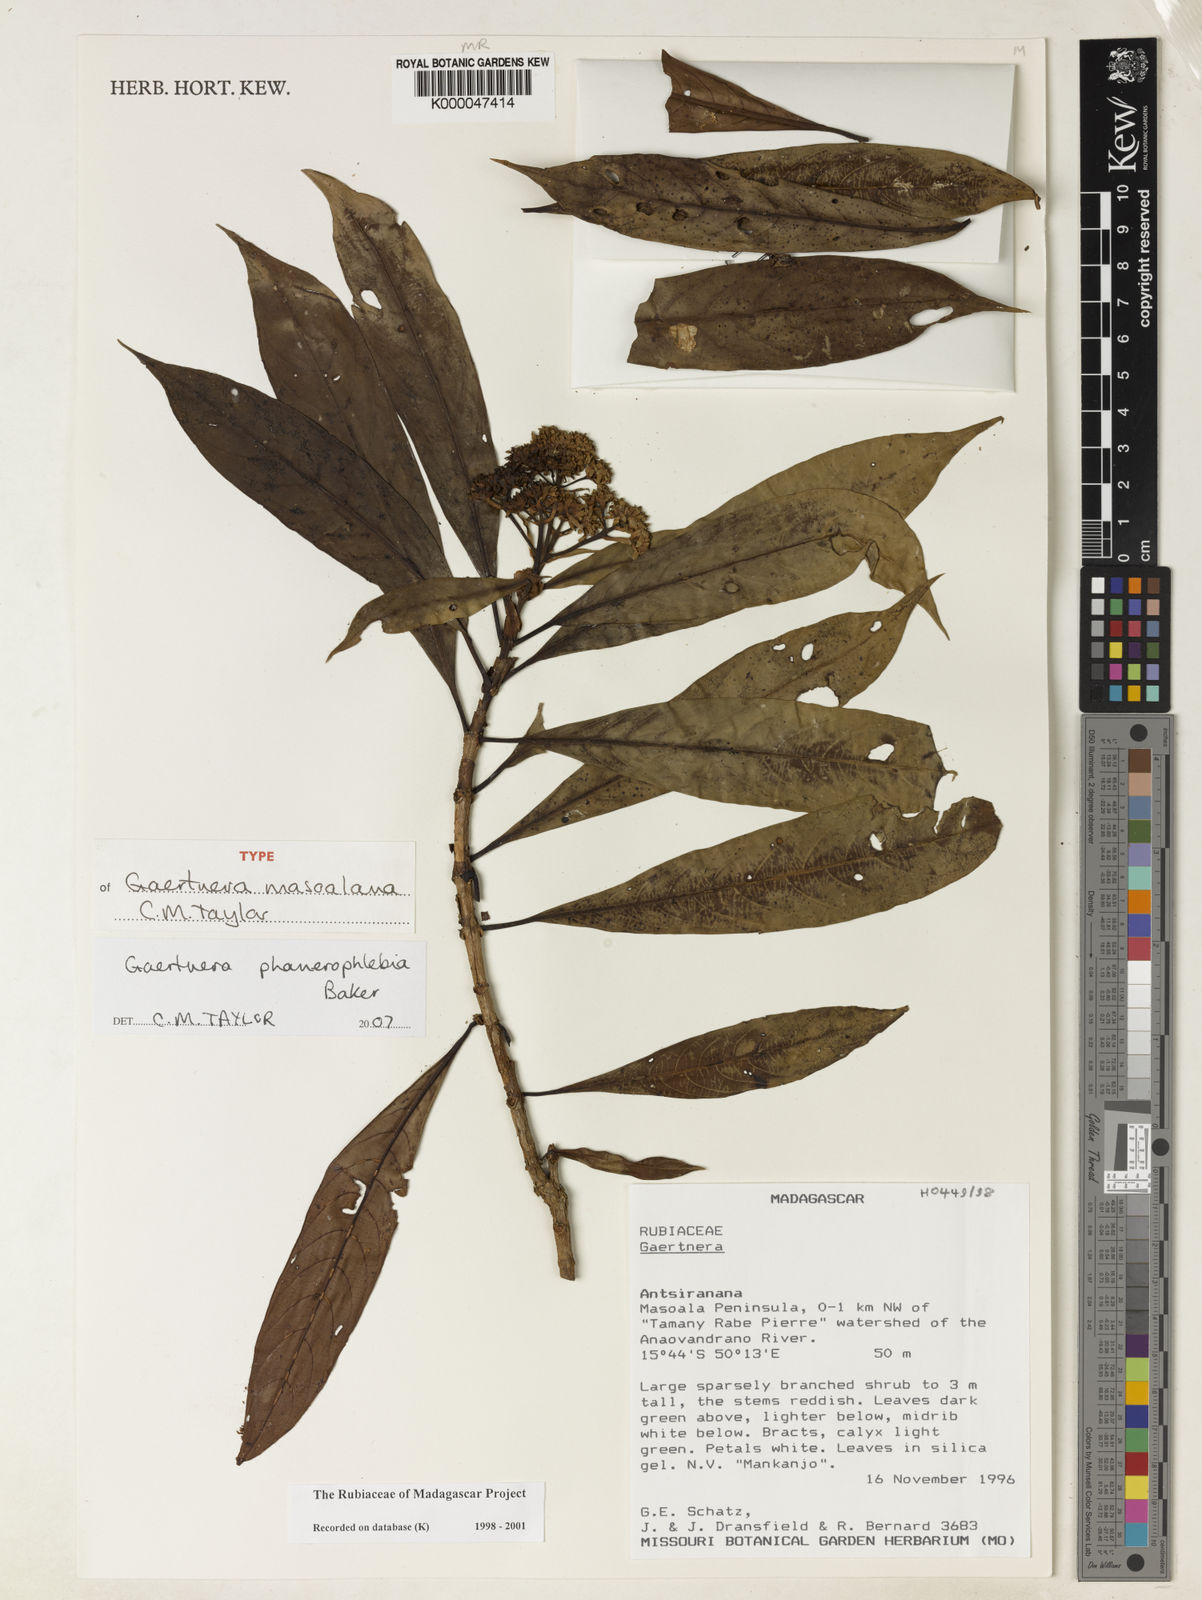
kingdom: Plantae
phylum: Tracheophyta
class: Magnoliopsida
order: Gentianales
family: Rubiaceae
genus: Gaertnera
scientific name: Gaertnera phanerophlebia
